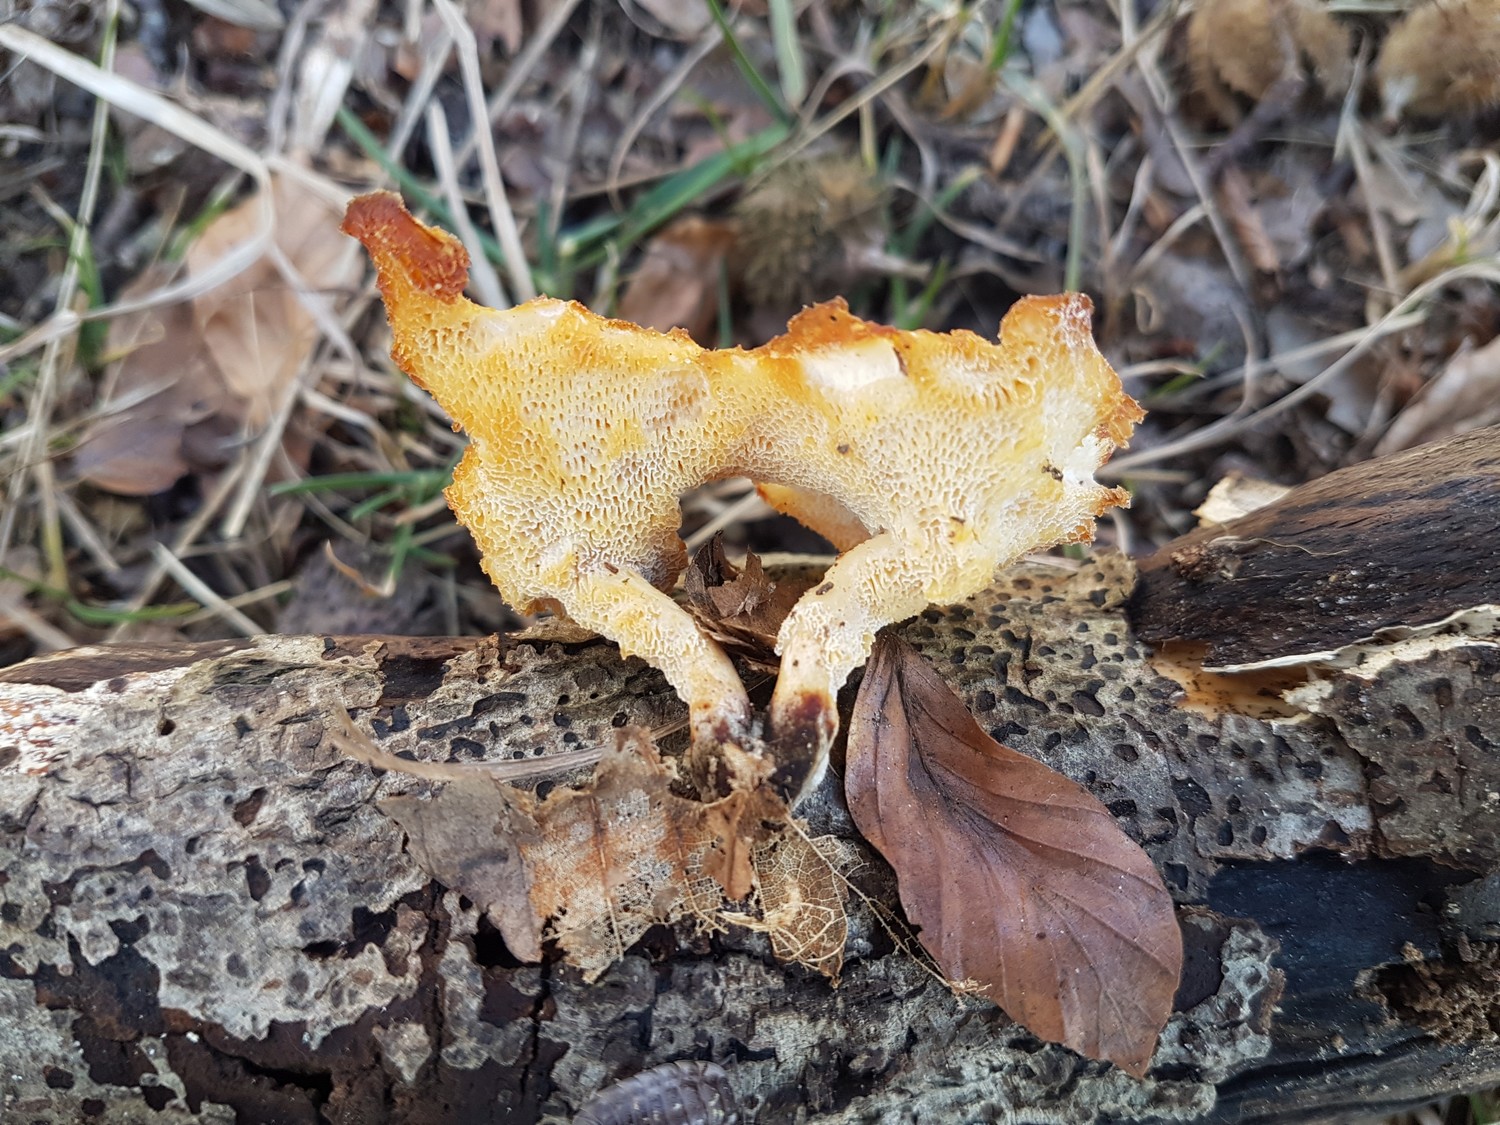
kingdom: Fungi
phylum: Basidiomycota
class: Agaricomycetes
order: Polyporales
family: Polyporaceae
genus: Lentinus
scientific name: Lentinus brumalis
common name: vinter-stilkporesvamp
